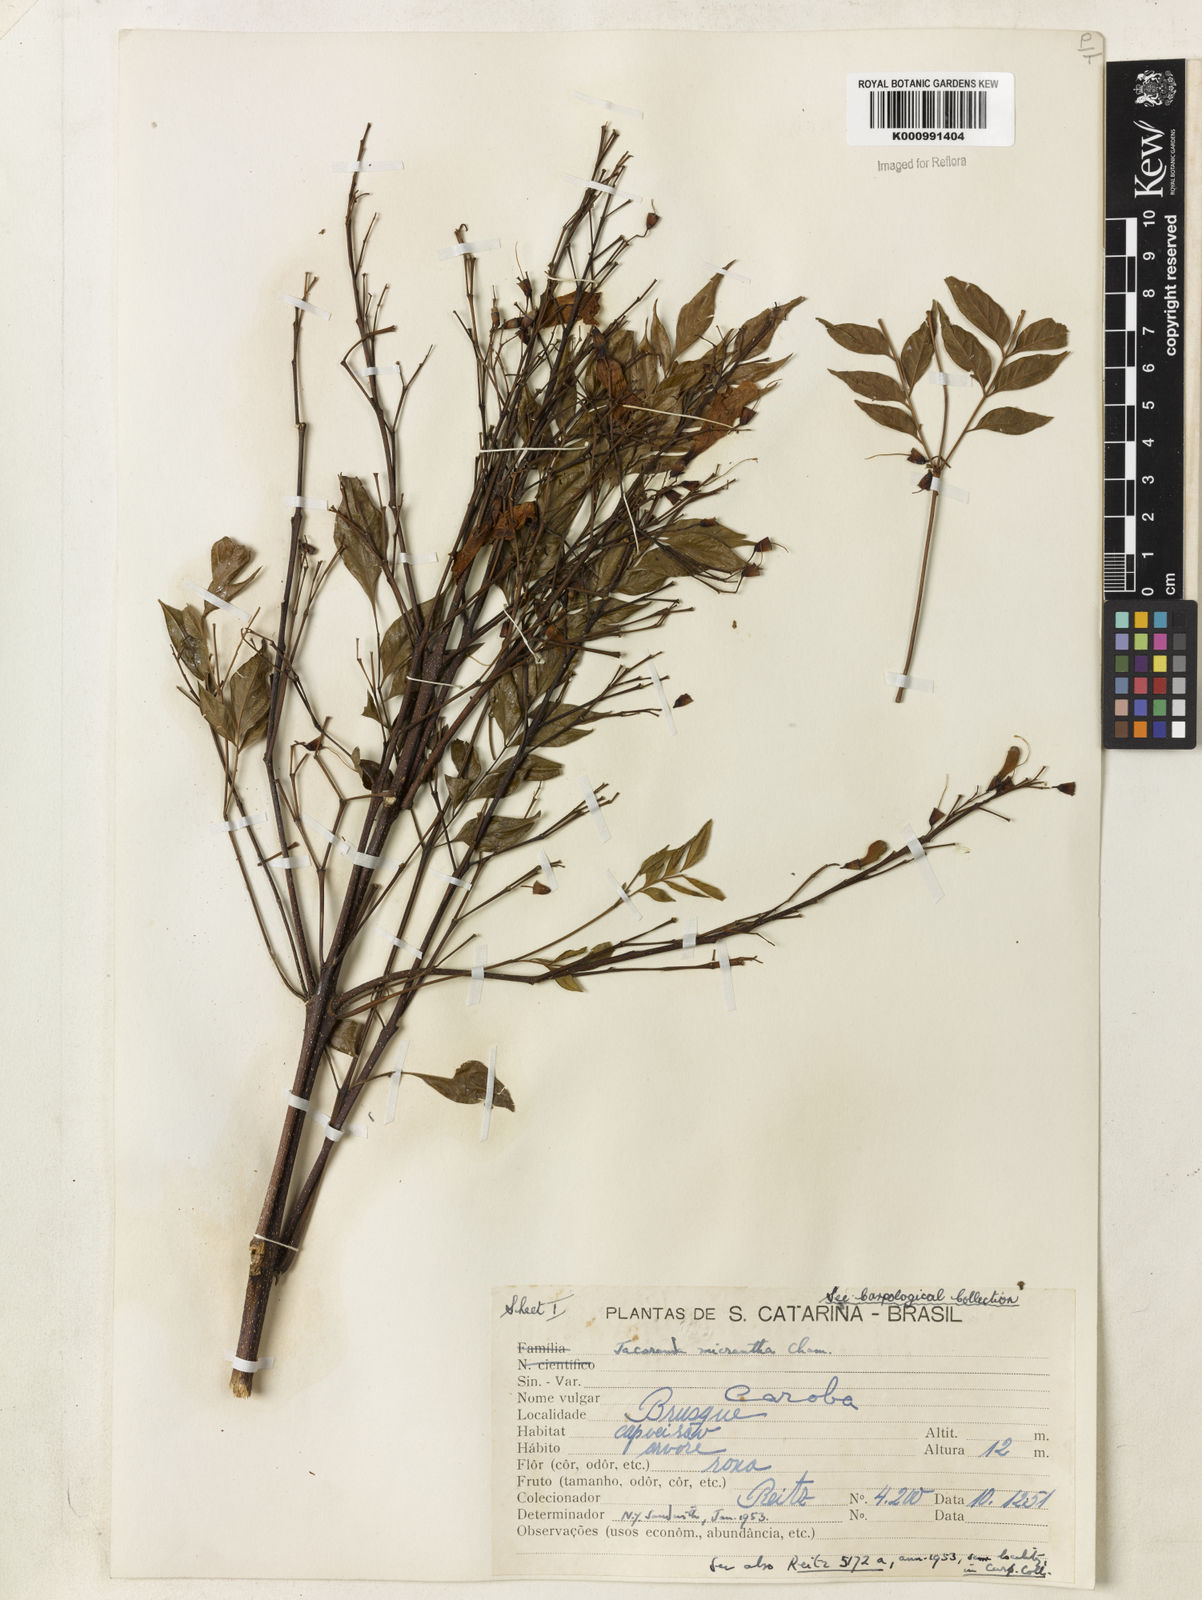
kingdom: Plantae
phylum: Tracheophyta
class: Magnoliopsida
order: Lamiales
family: Bignoniaceae
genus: Jacaranda
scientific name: Jacaranda micrantha
